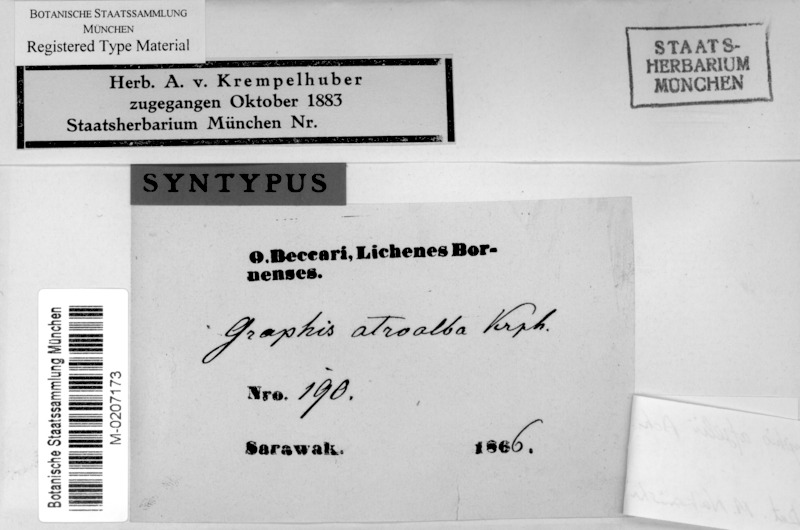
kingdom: Fungi
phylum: Ascomycota
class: Lecanoromycetes
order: Ostropales
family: Graphidaceae
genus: Dyplolabia
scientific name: Dyplolabia afzelii
